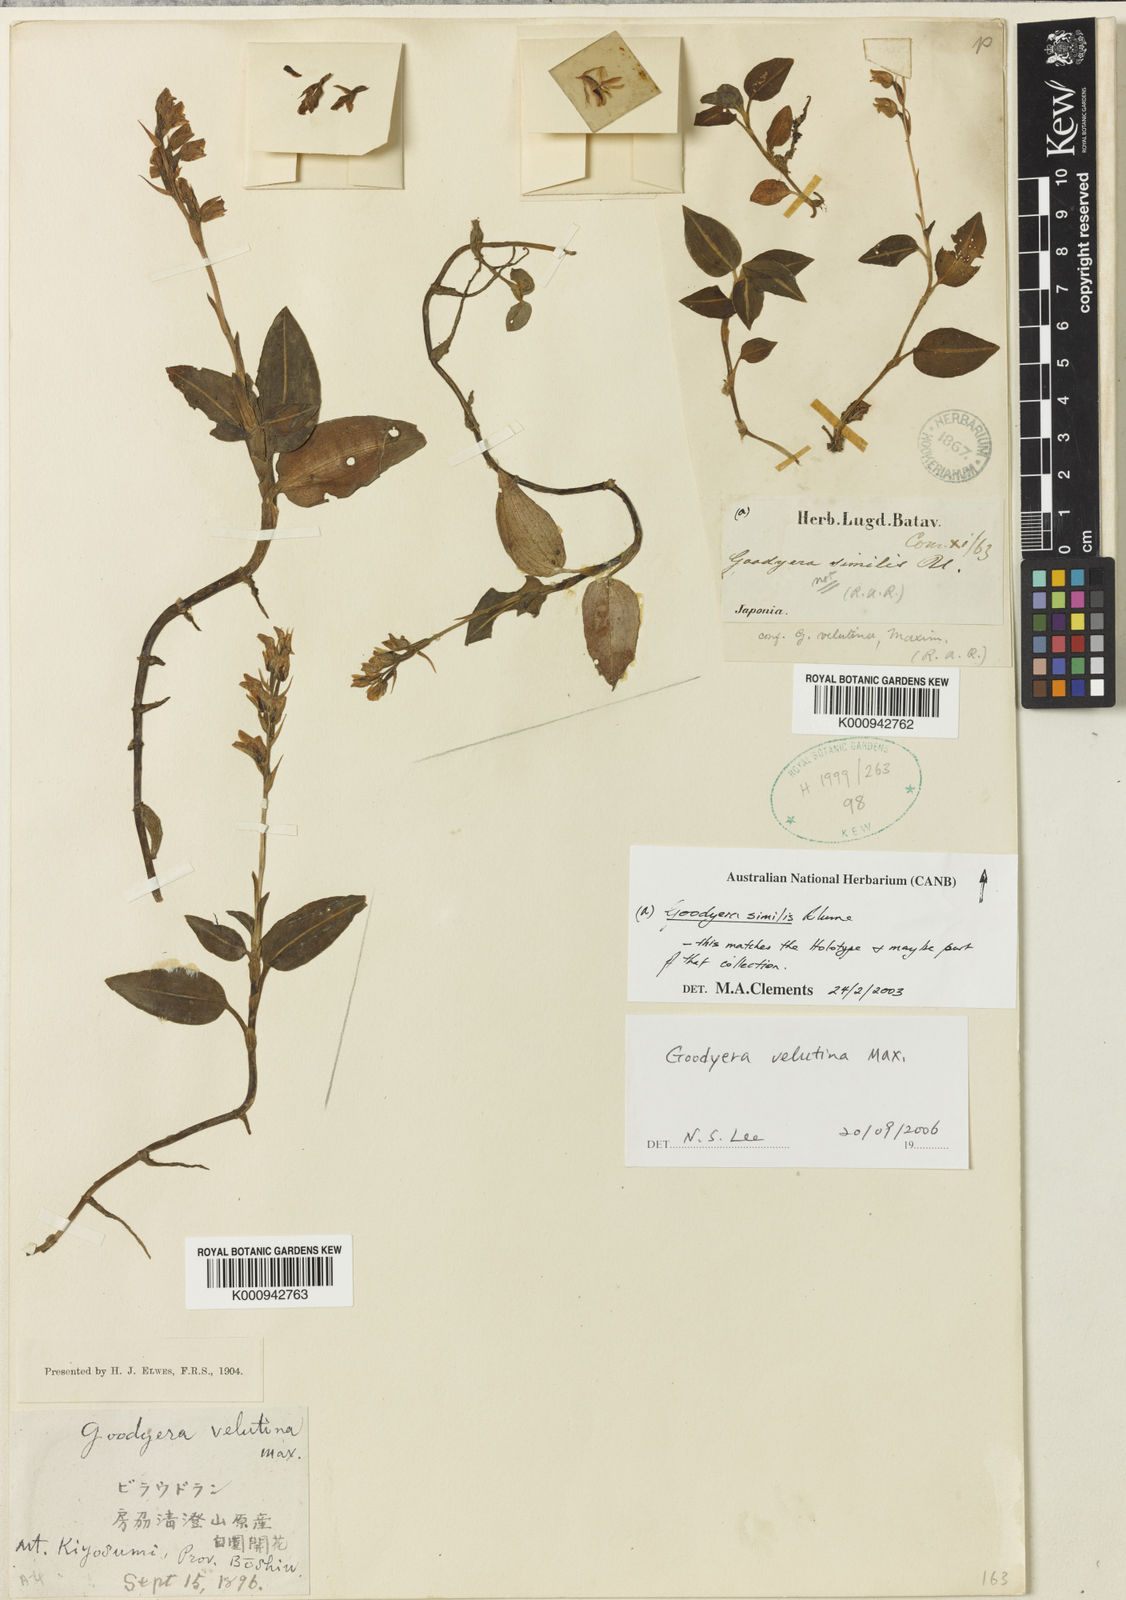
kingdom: Plantae
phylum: Tracheophyta
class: Liliopsida
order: Asparagales
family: Orchidaceae
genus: Goodyera
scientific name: Goodyera similis
